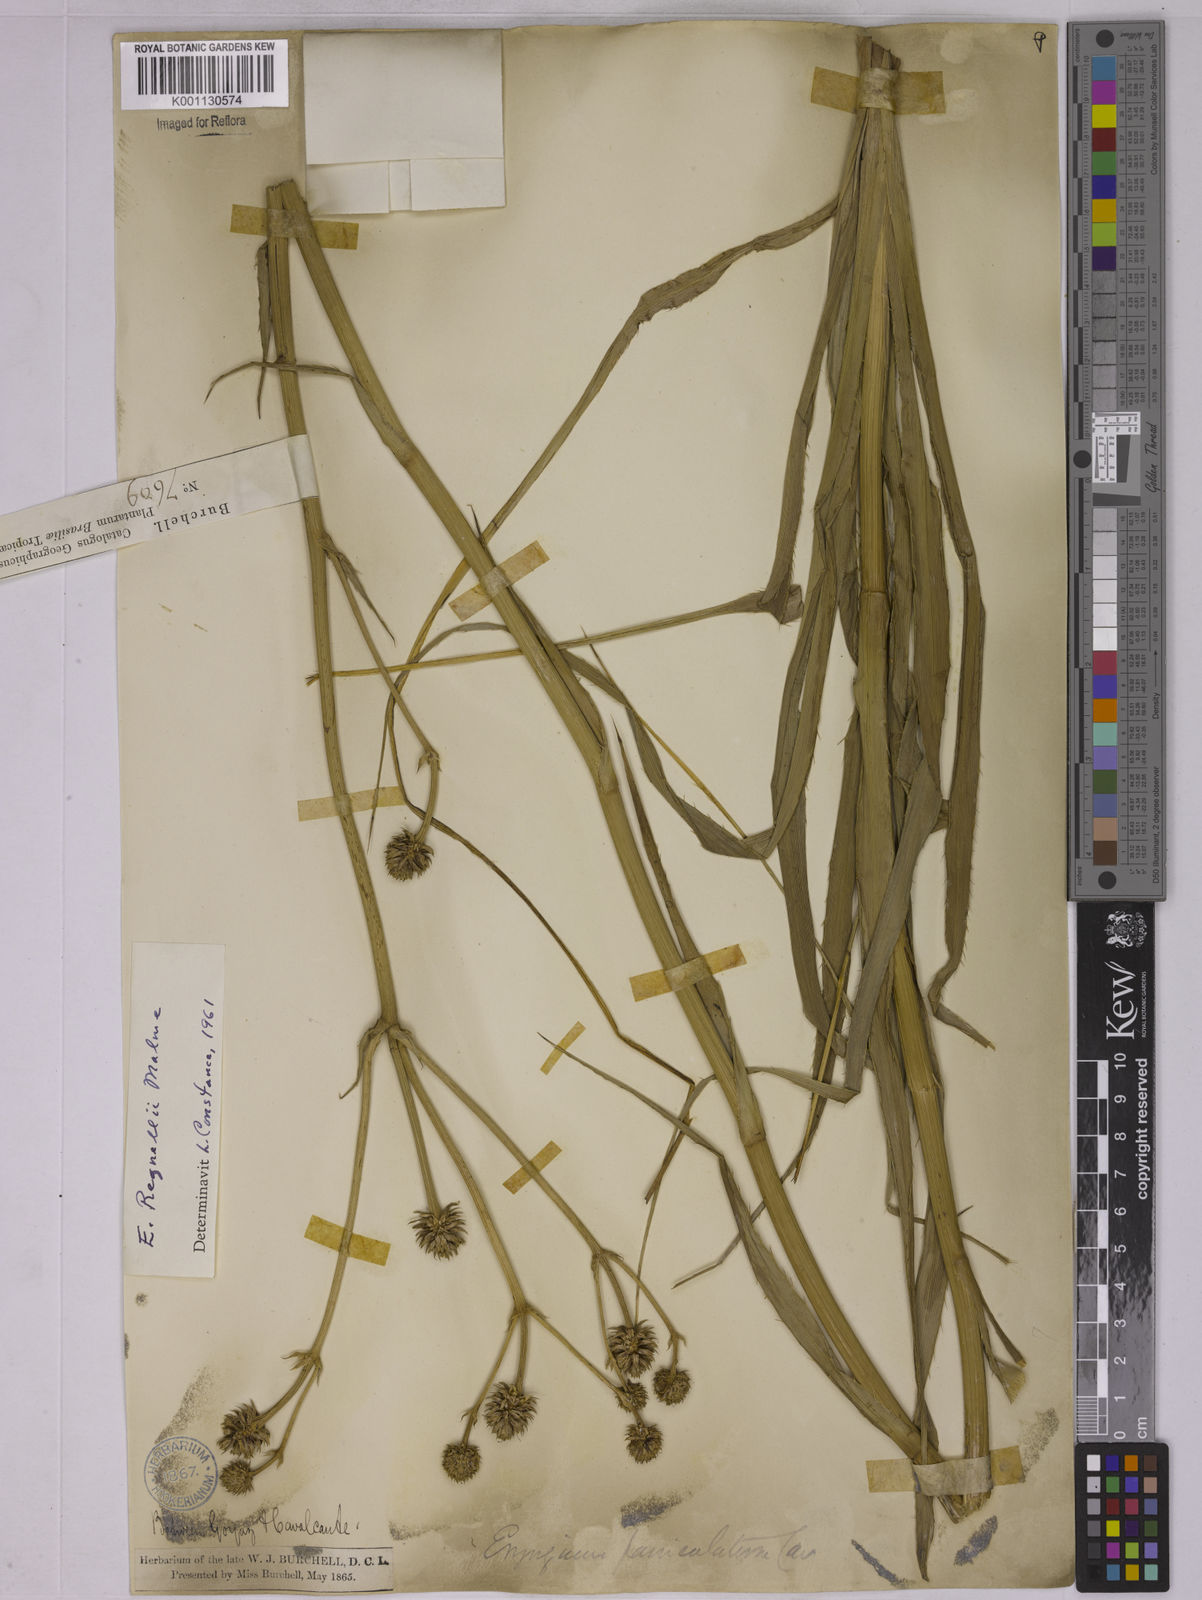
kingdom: Plantae
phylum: Tracheophyta
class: Magnoliopsida
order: Apiales
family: Apiaceae
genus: Eryngium
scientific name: Eryngium regnellii
